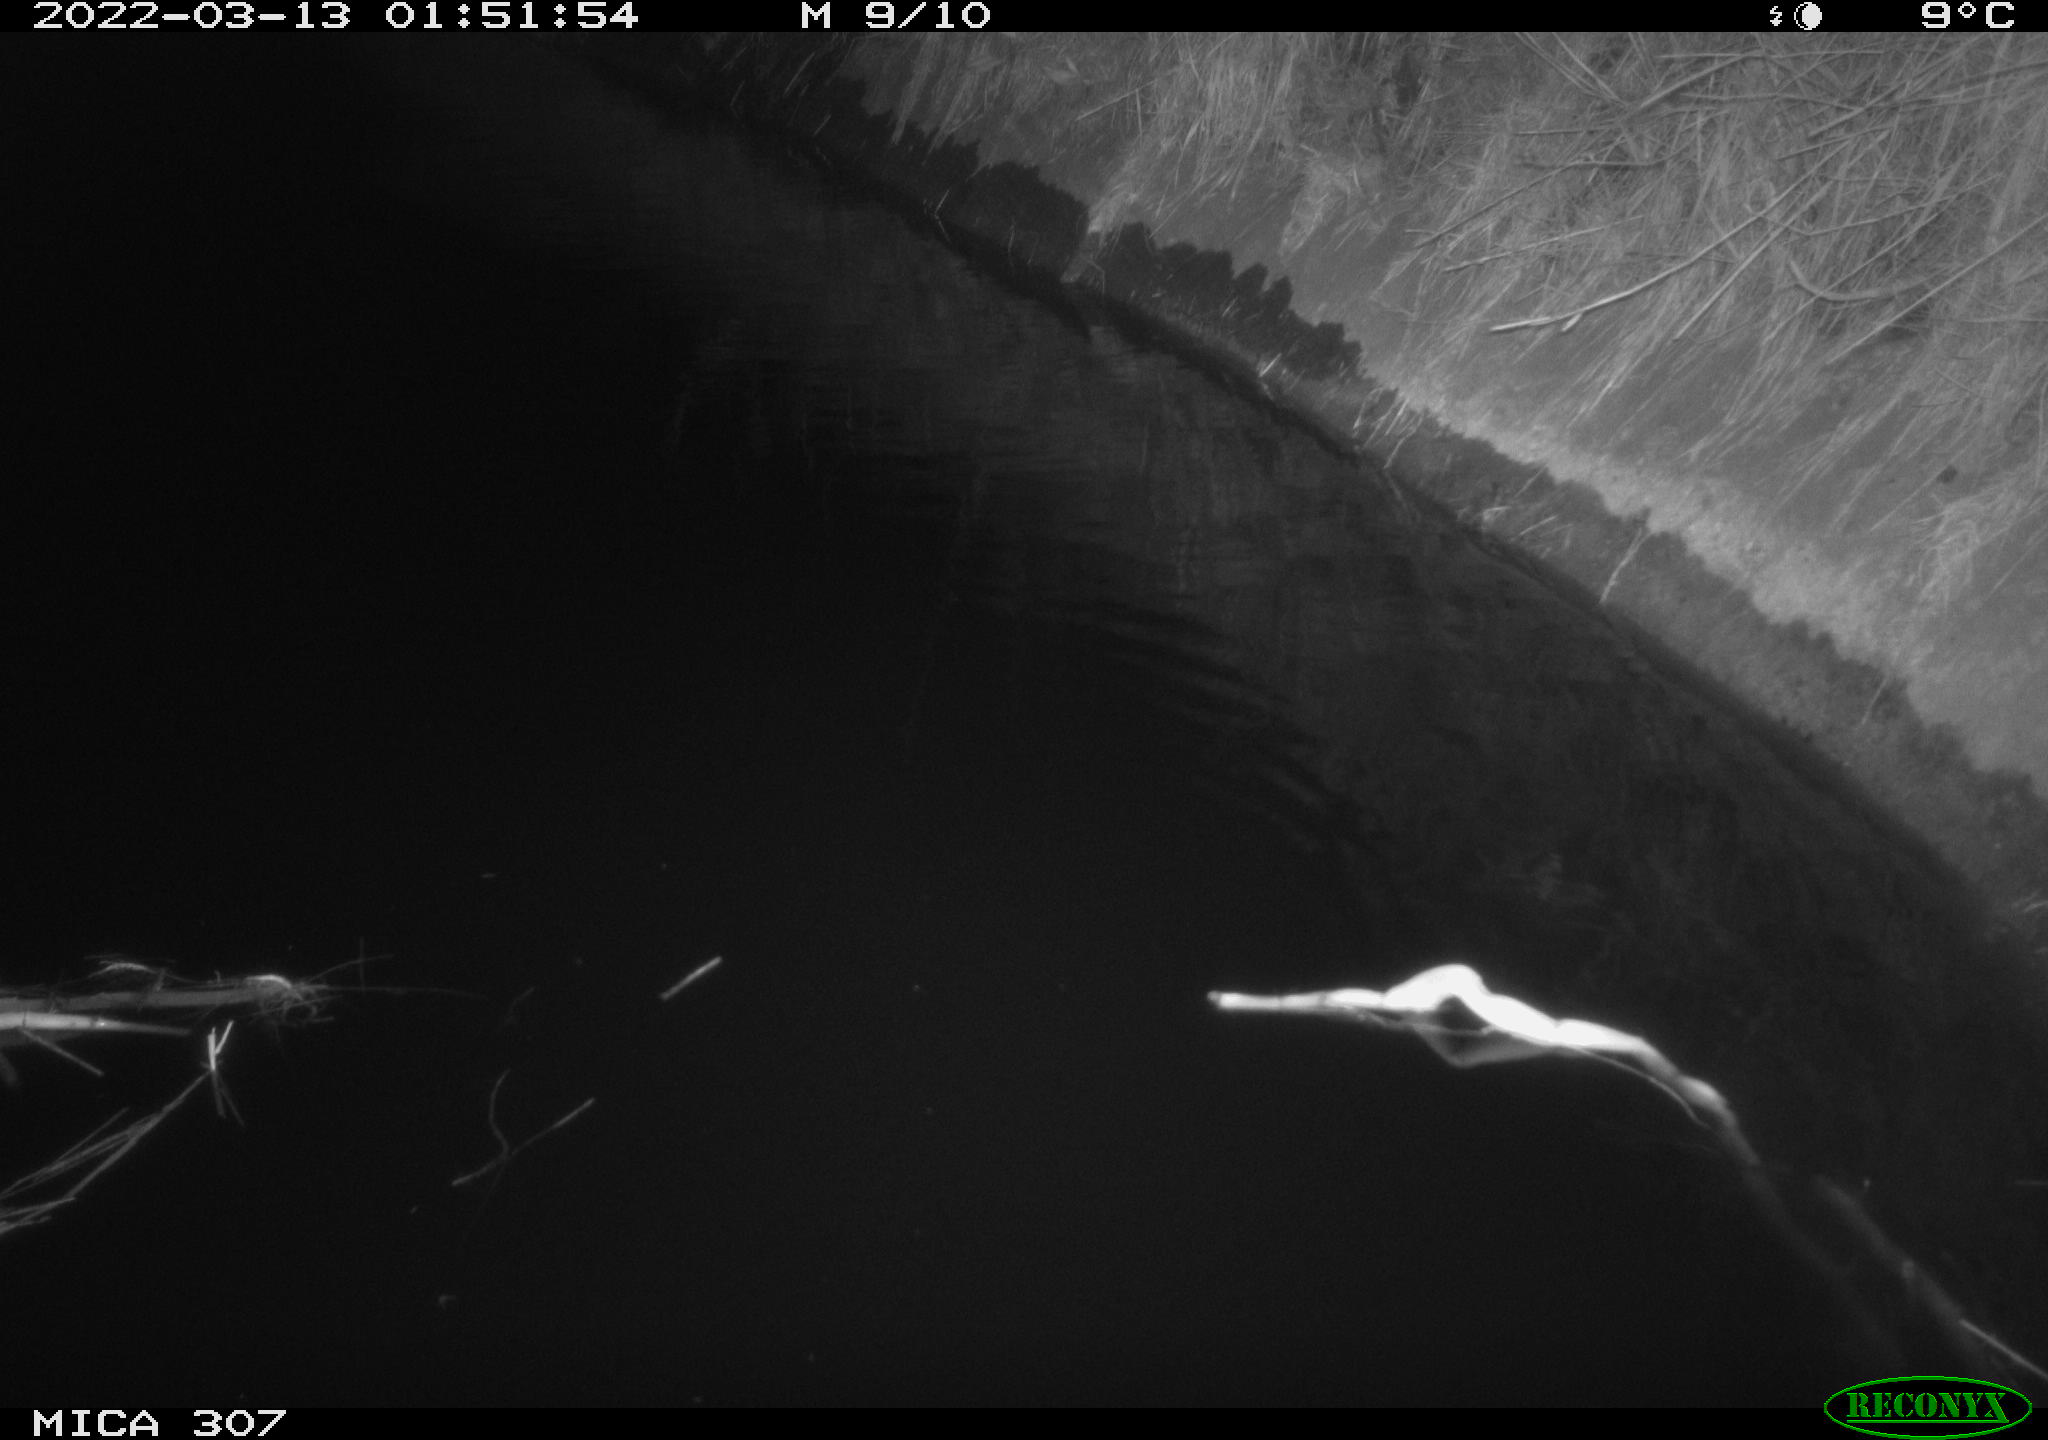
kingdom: Animalia
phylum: Chordata
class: Aves
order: Gruiformes
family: Rallidae
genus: Gallinula
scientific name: Gallinula chloropus
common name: Common moorhen
